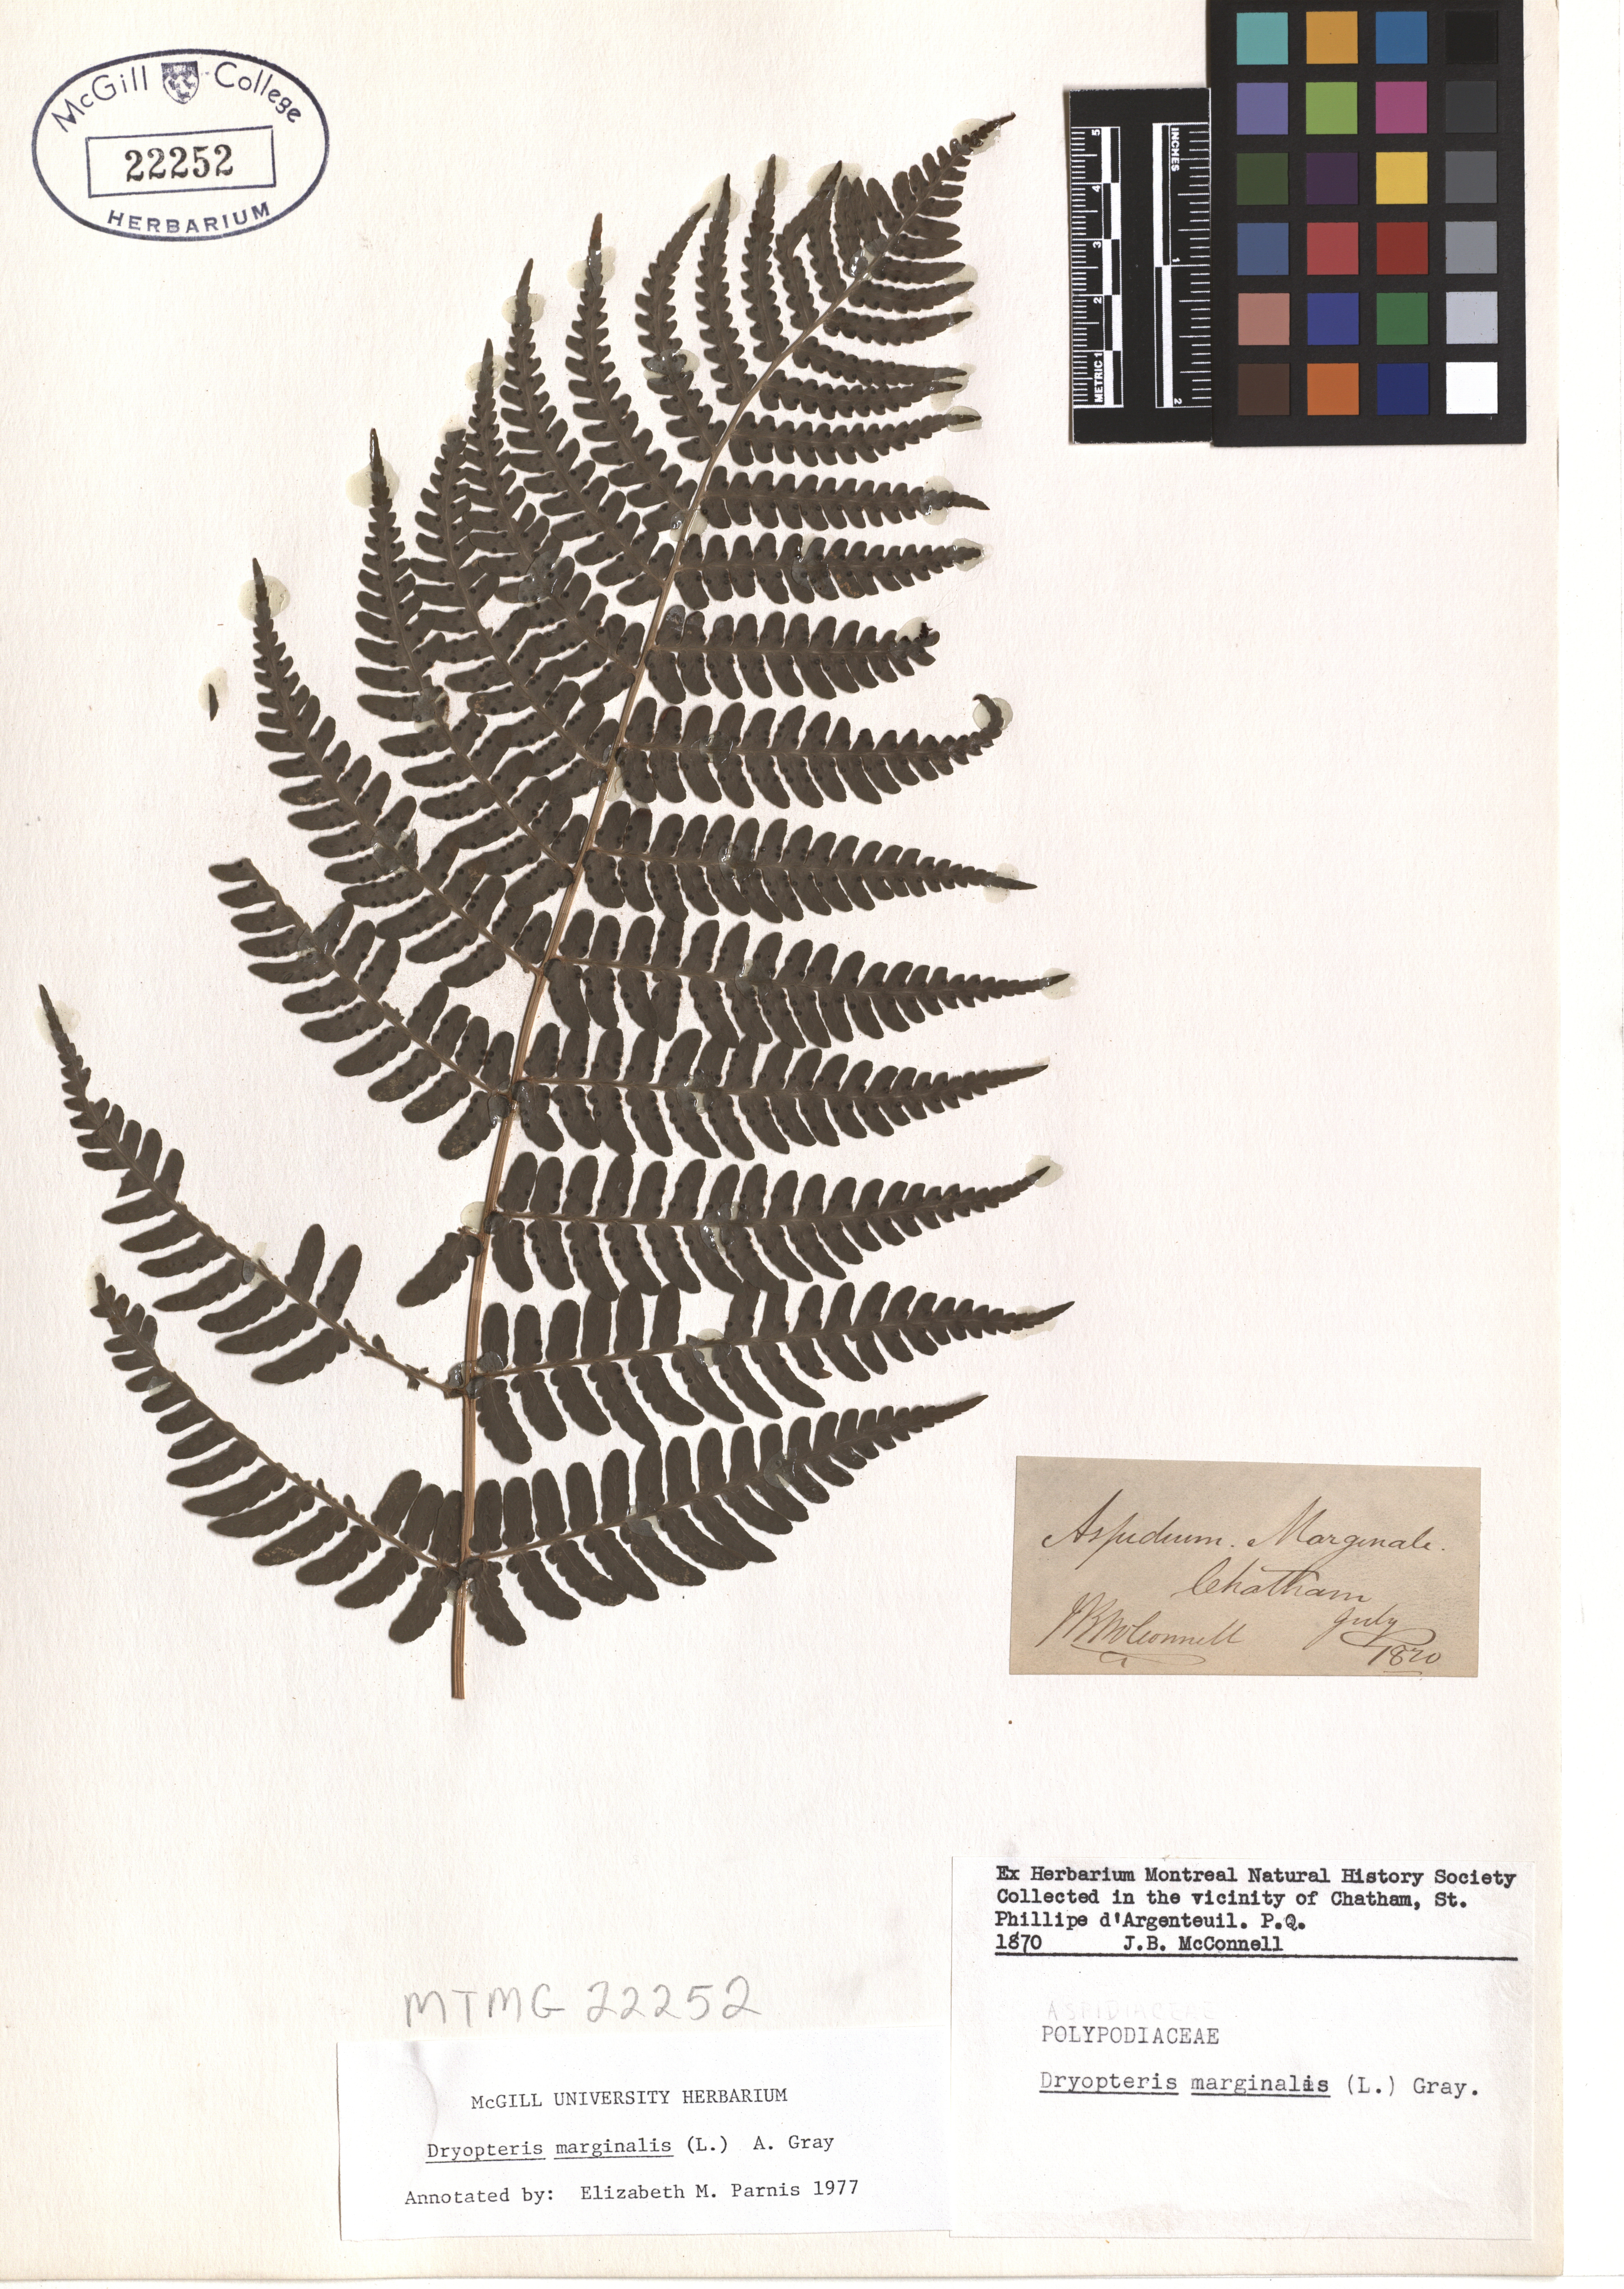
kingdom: Plantae
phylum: Tracheophyta
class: Polypodiopsida
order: Polypodiales
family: Dryopteridaceae
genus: Dryopteris
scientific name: Dryopteris marginalis
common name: Marginal wood fern
